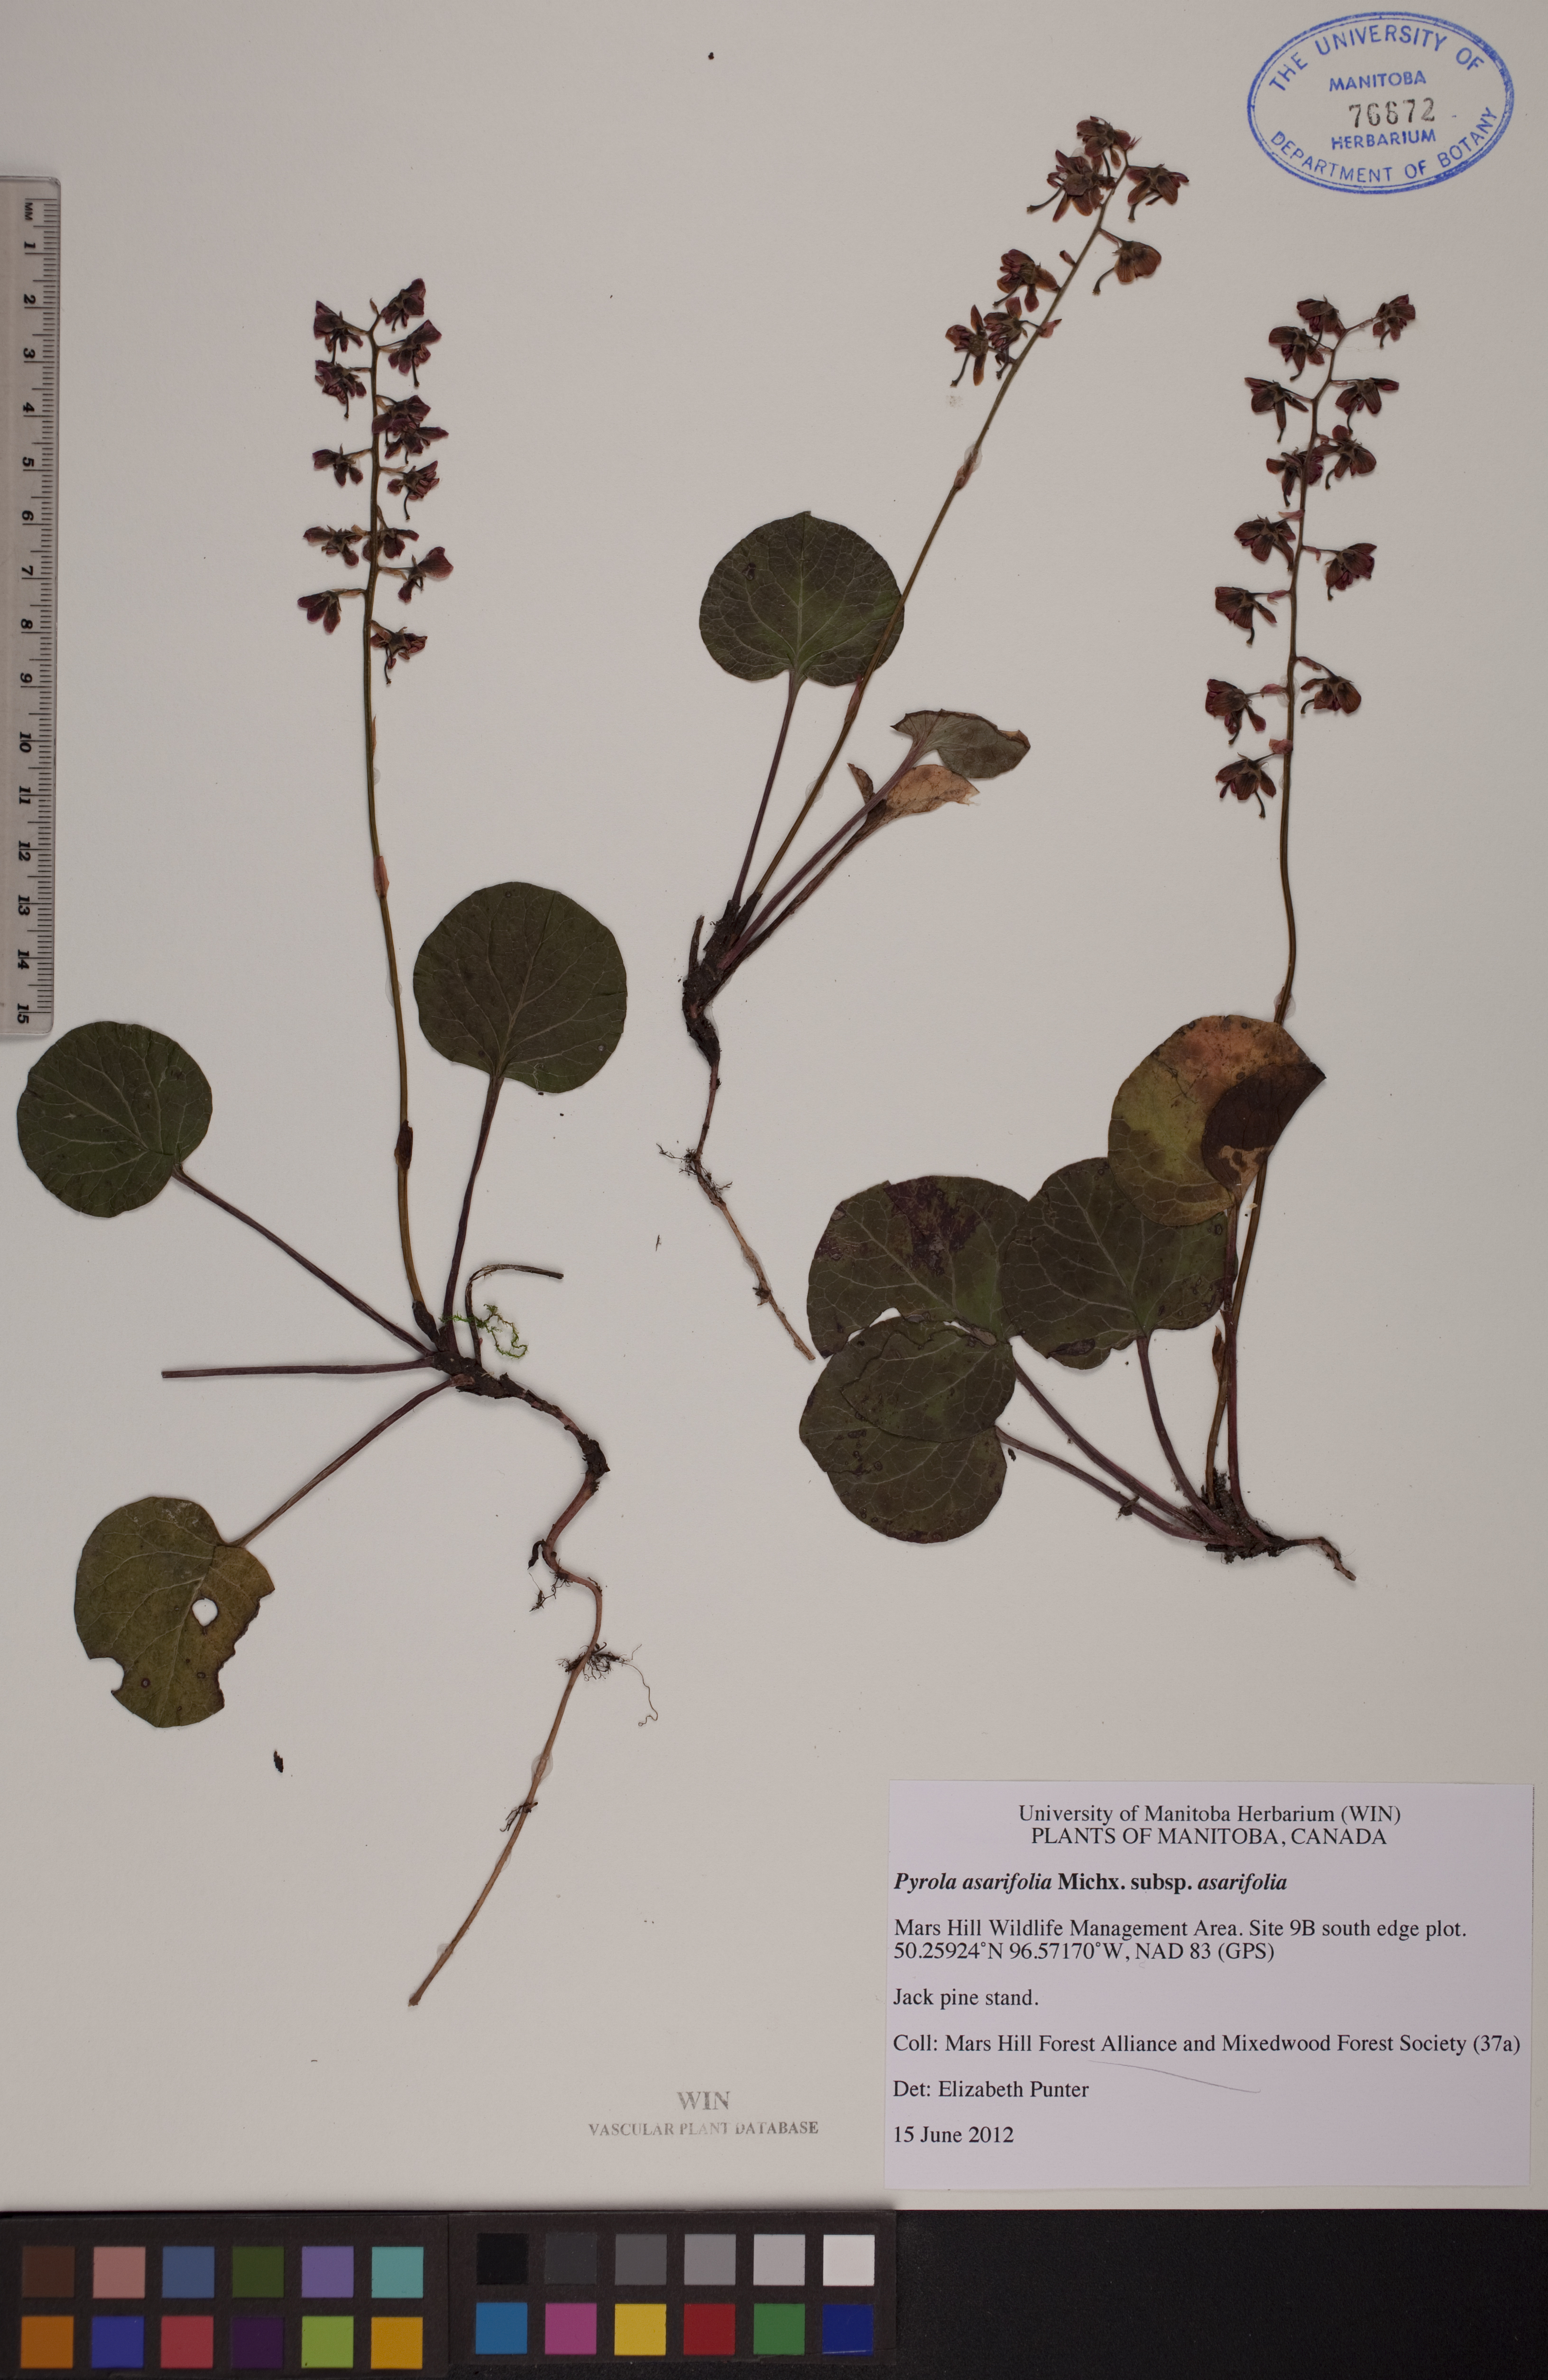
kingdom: Plantae
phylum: Tracheophyta
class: Magnoliopsida
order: Ericales
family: Ericaceae
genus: Pyrola
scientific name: Pyrola asarifolia
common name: Bog wintergreen
